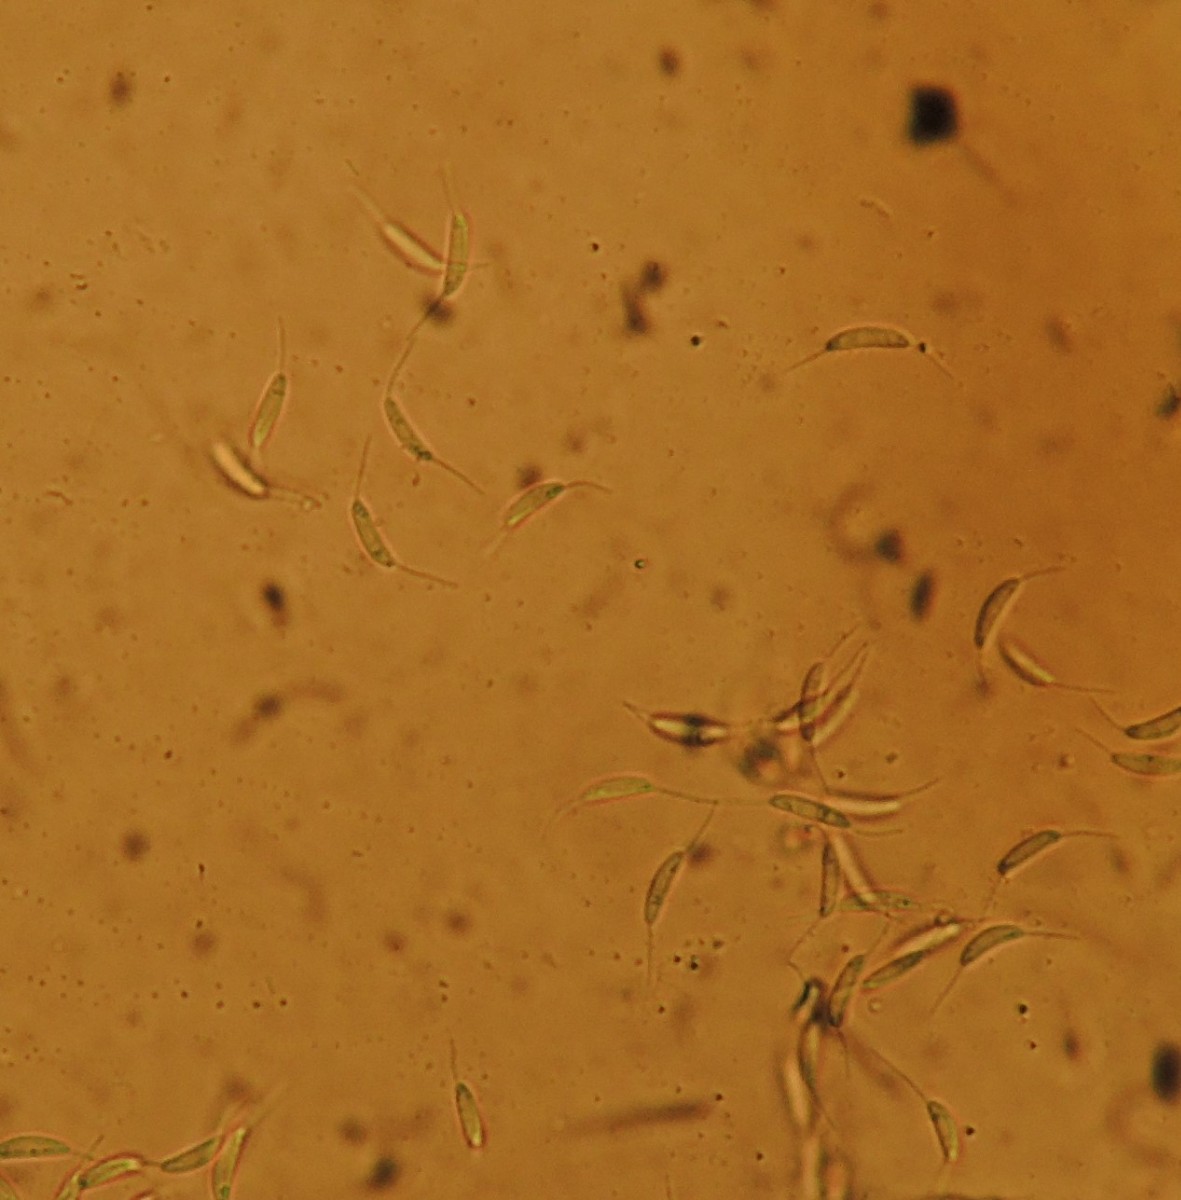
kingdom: Fungi
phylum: Ascomycota
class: Sordariomycetes
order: Phomatosporales
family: Phomatosporaceae
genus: Phomatospora
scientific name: Phomatospora dinemasporium
